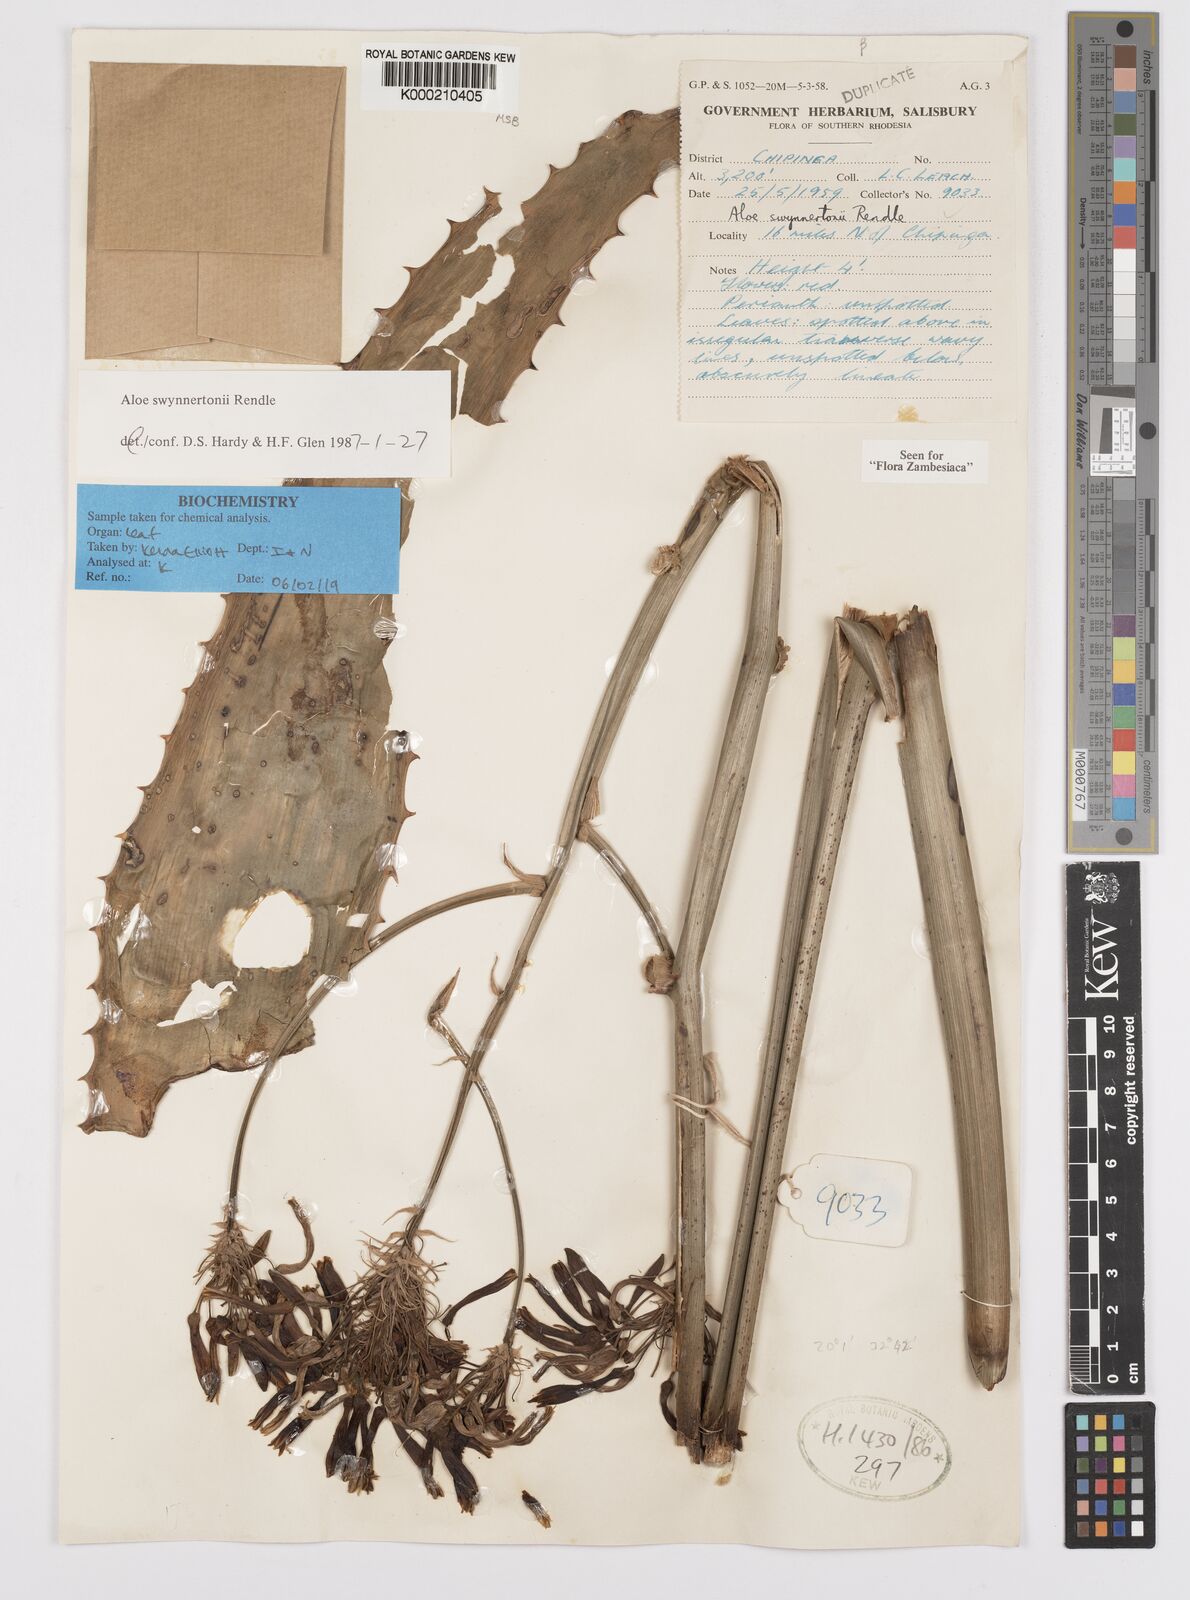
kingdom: Plantae
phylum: Tracheophyta
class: Liliopsida
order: Asparagales
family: Asphodelaceae
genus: Aloe
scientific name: Aloe swynnertonii
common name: Swynnerton's aloe
